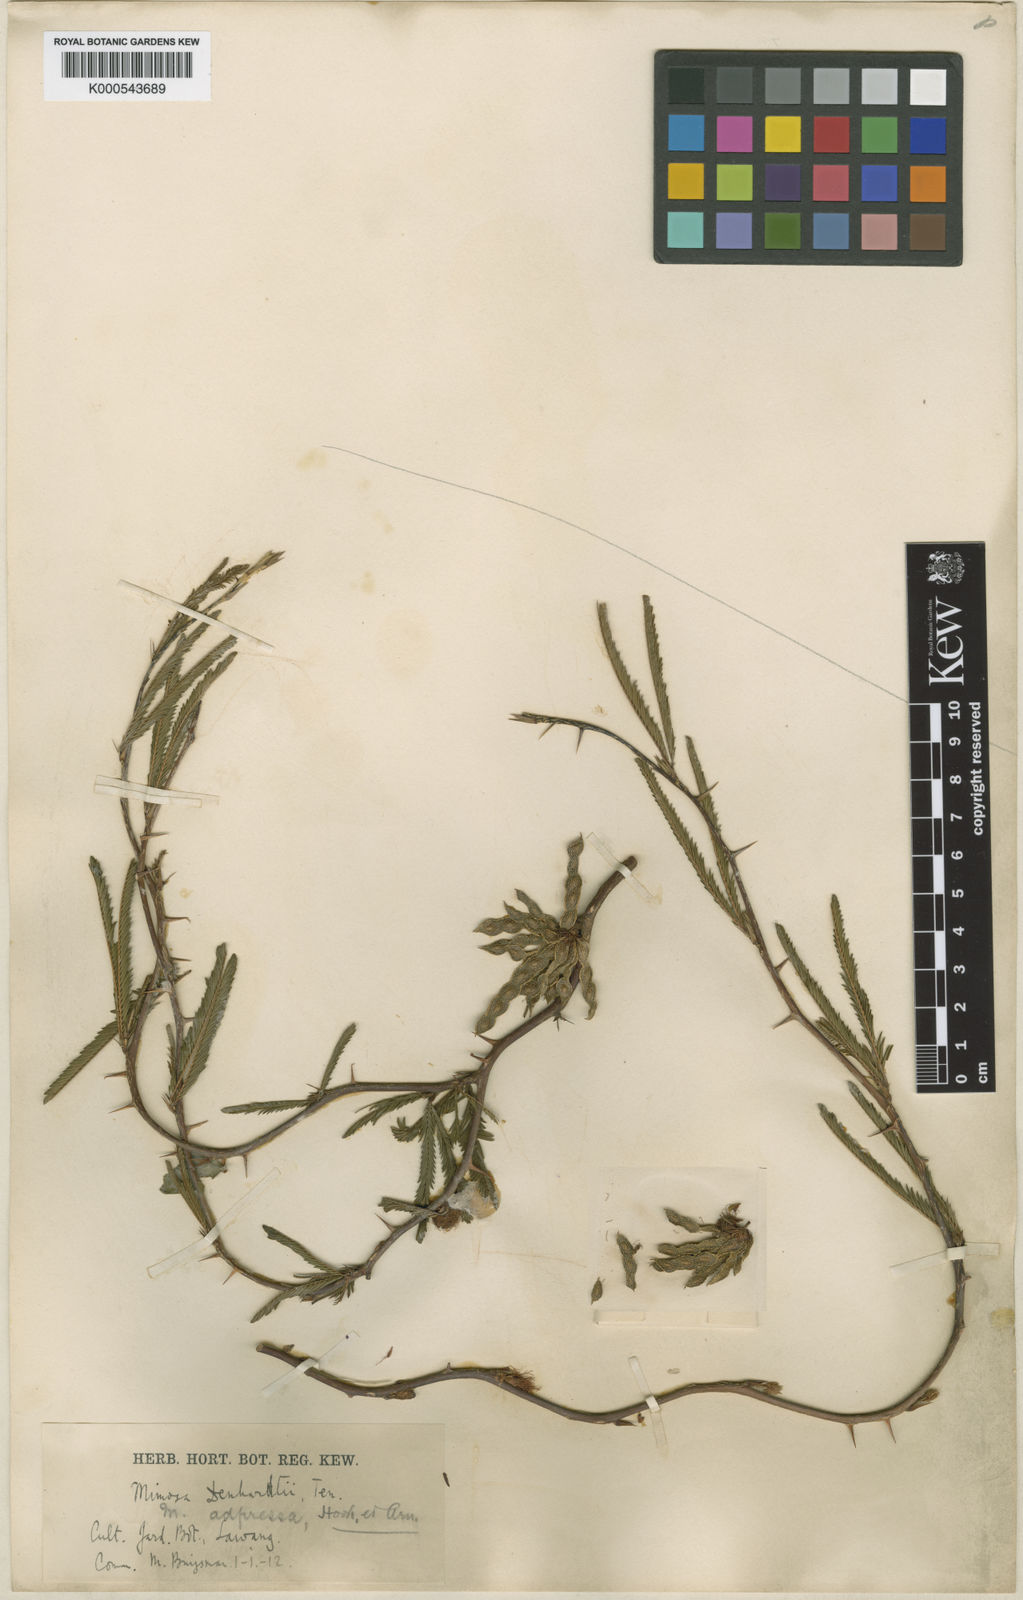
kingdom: Plantae
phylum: Tracheophyta
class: Magnoliopsida
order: Fabales
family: Fabaceae
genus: Mimosa
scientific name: Mimosa adpressa
